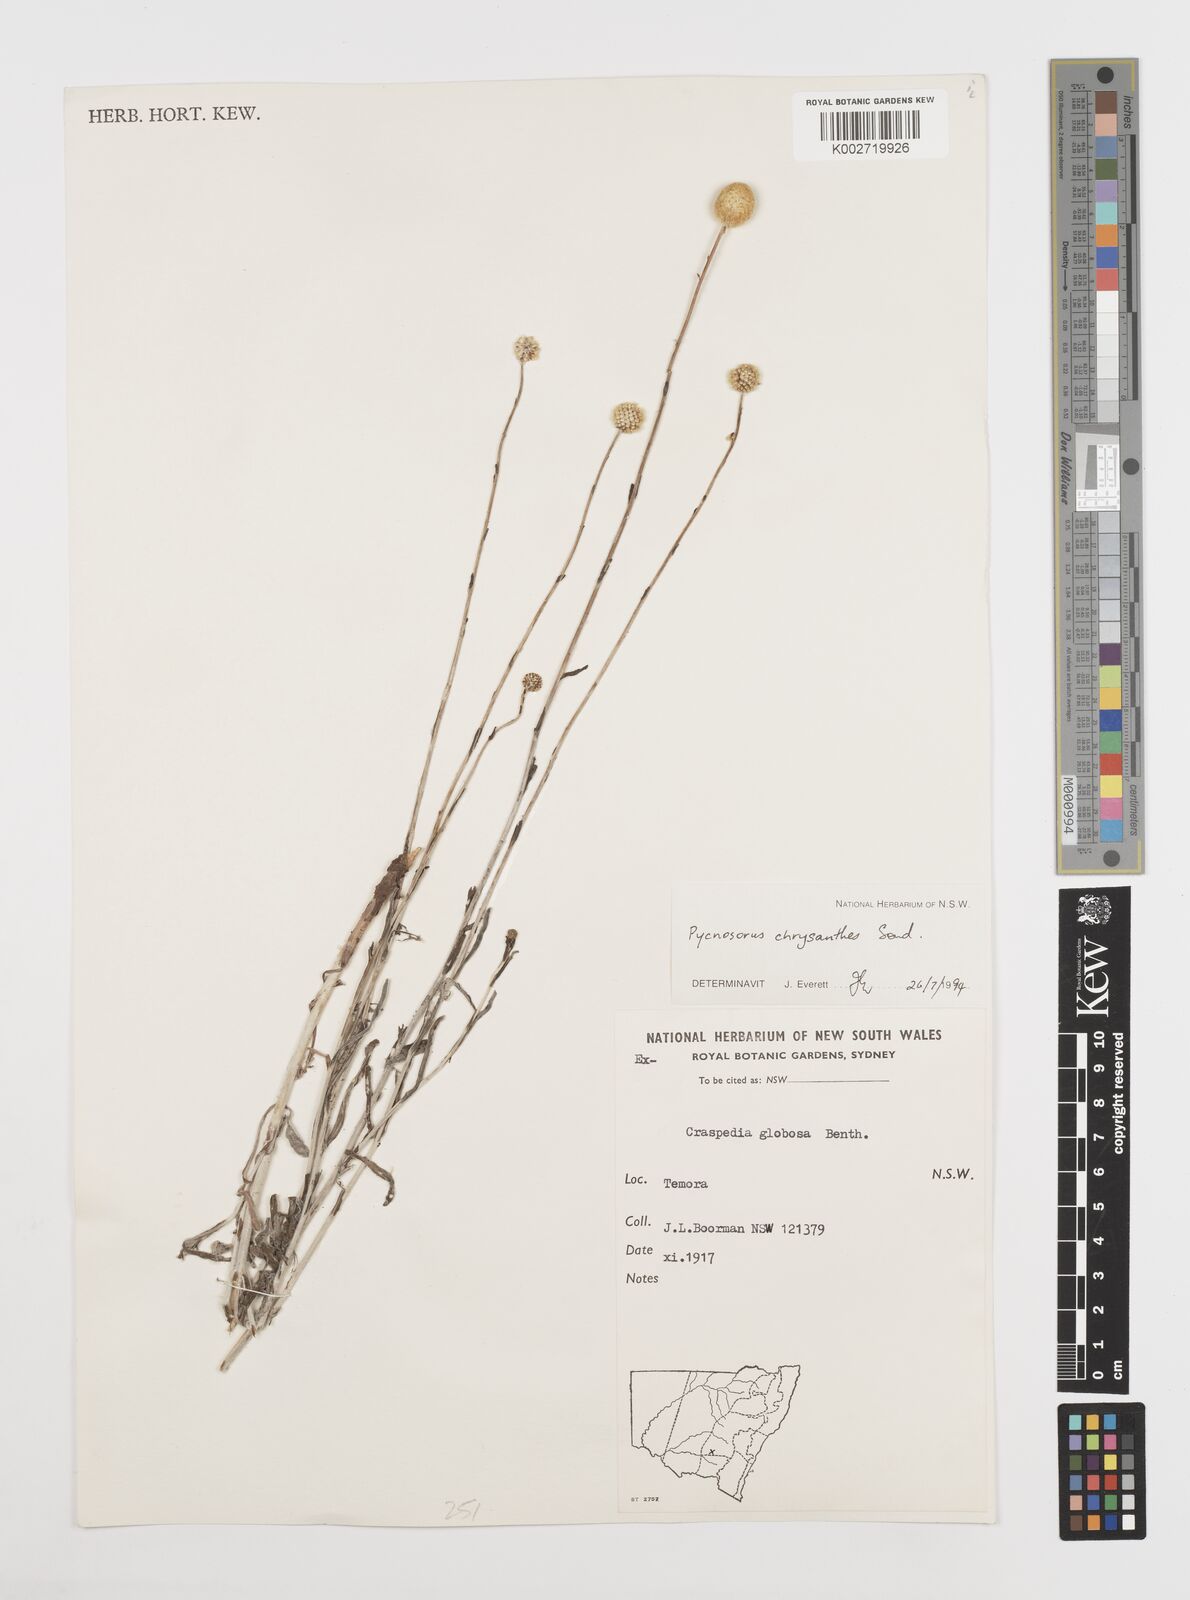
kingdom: Plantae
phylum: Tracheophyta
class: Magnoliopsida
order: Asterales
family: Asteraceae
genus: Pycnosorus
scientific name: Pycnosorus chrysanthus
